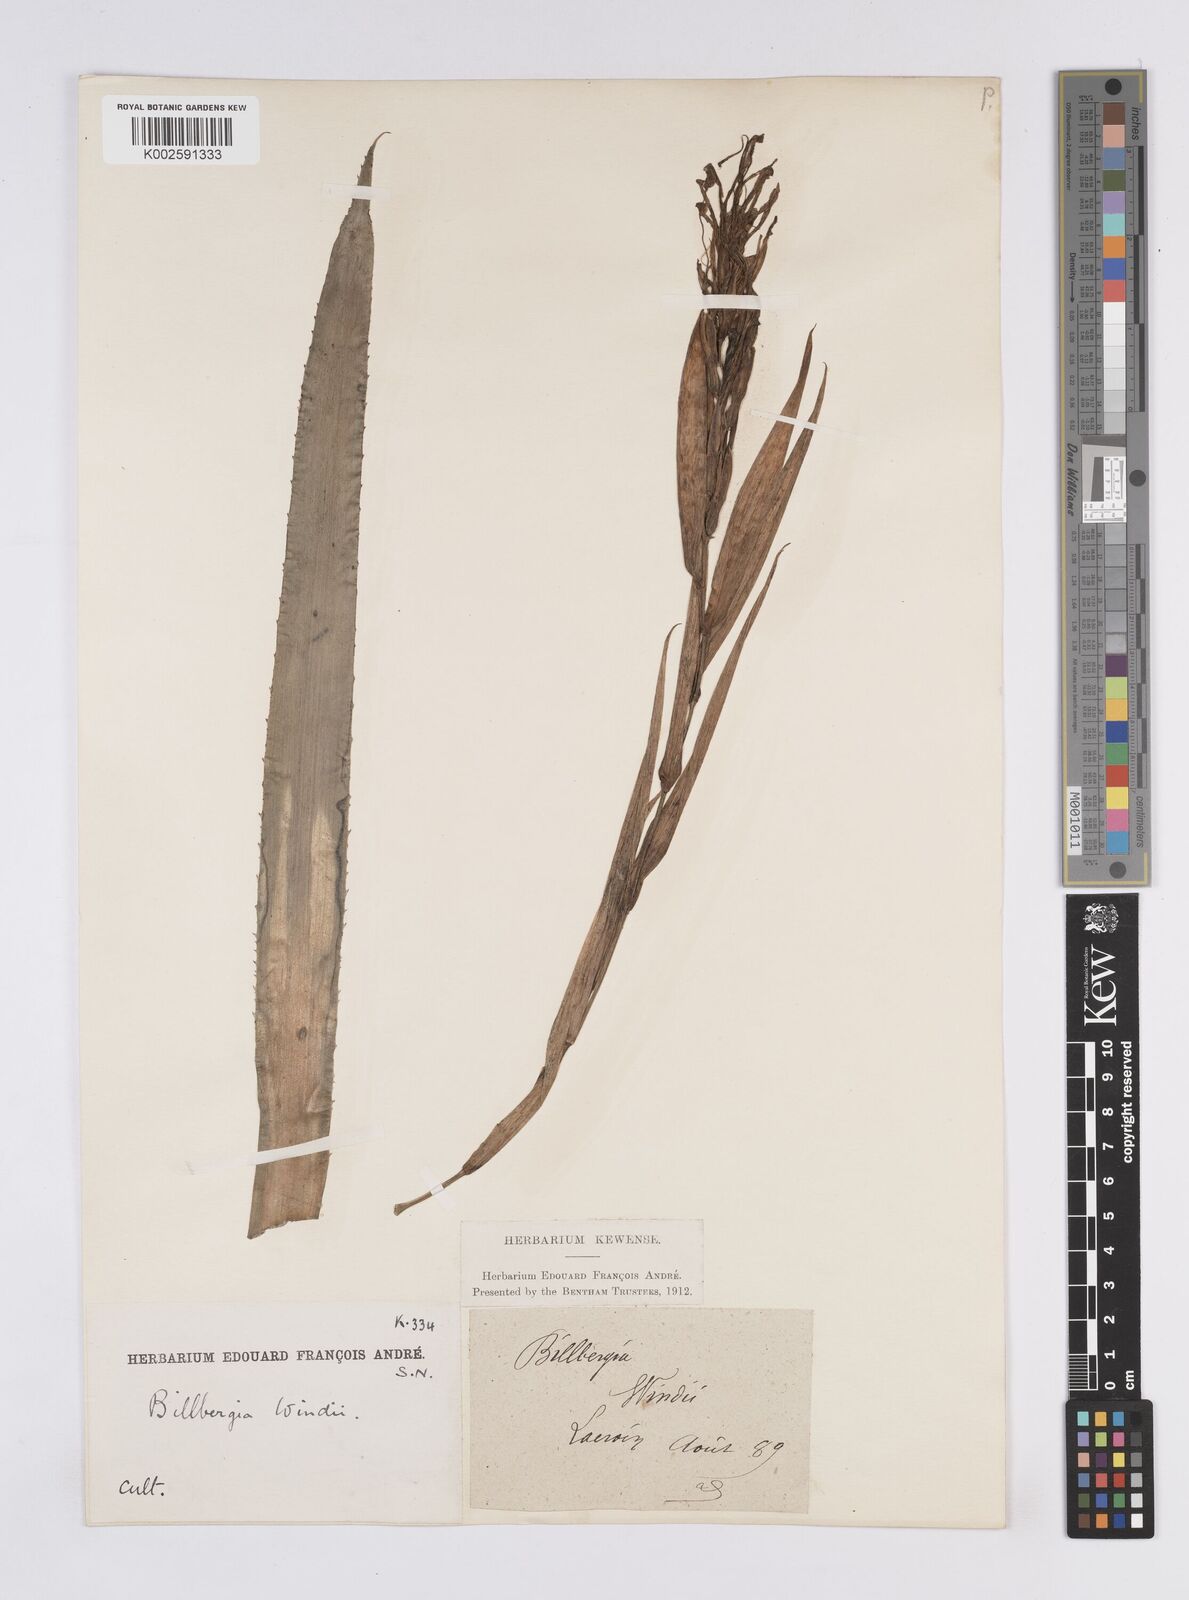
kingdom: Plantae
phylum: Tracheophyta
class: Liliopsida
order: Poales
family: Bromeliaceae
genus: Billbergia
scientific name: Billbergia windii
